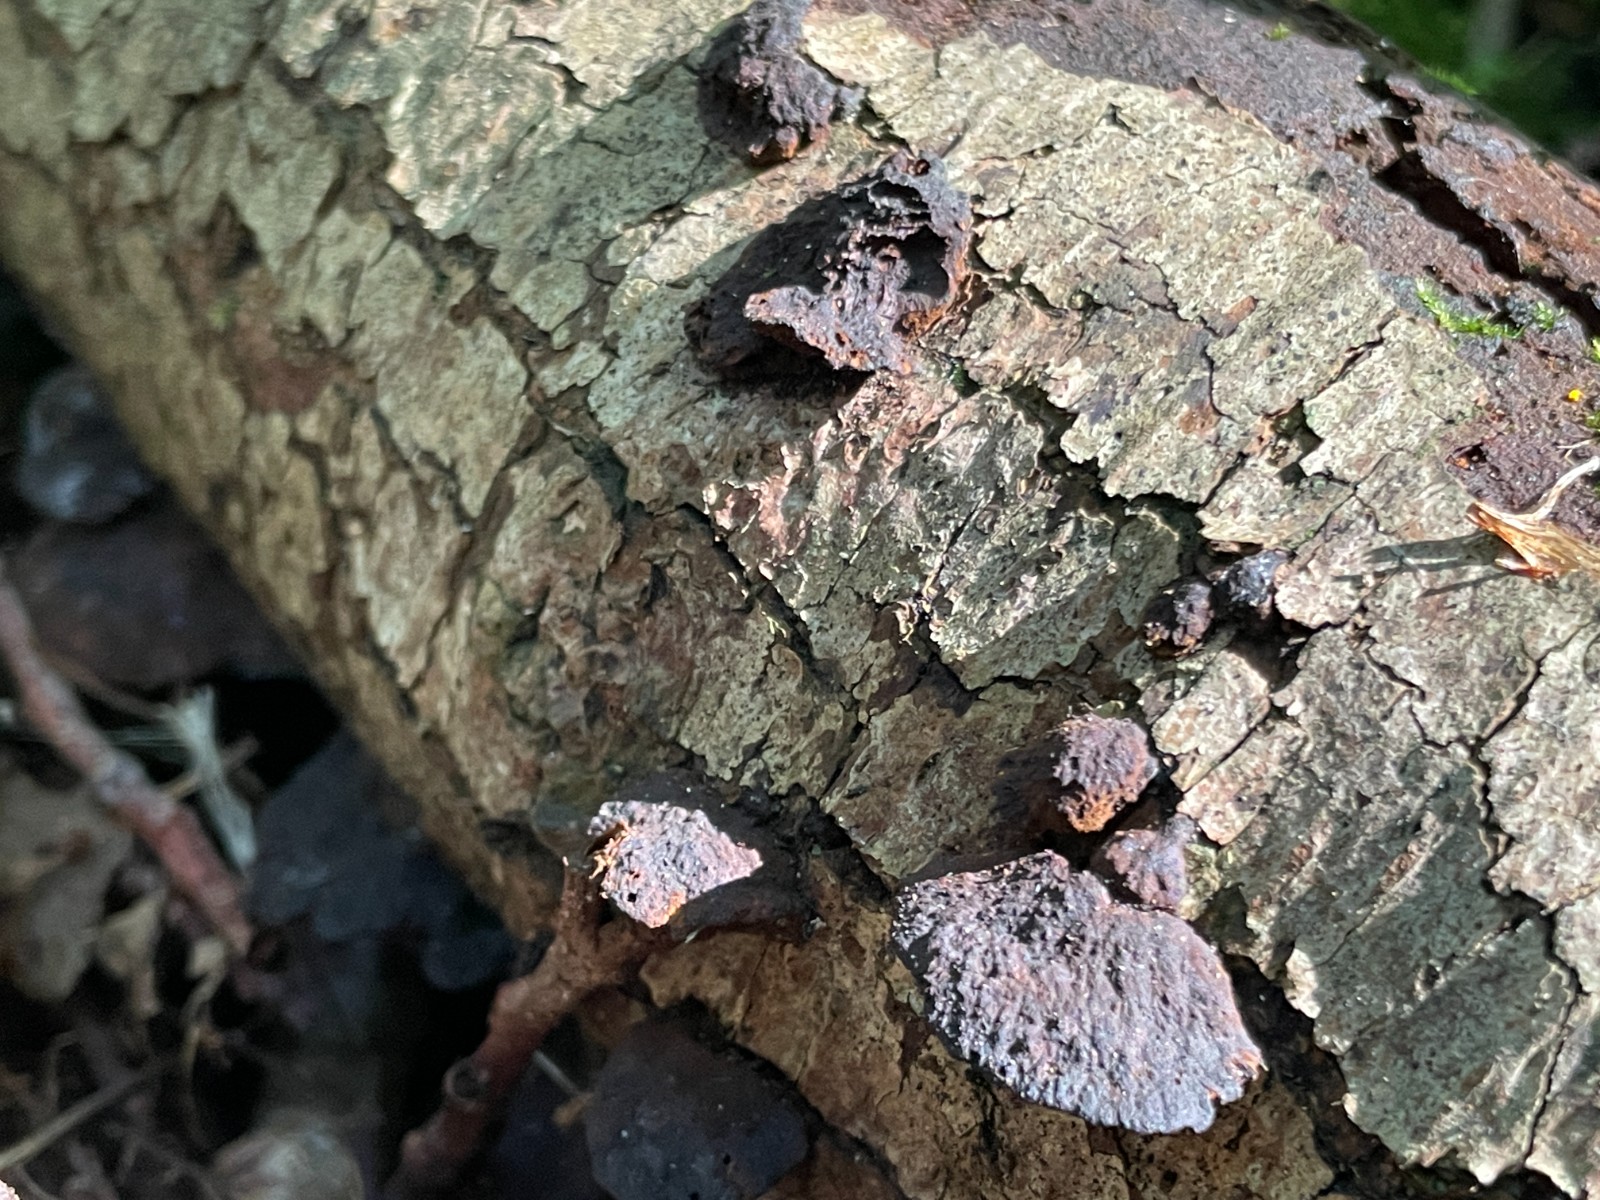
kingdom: Fungi
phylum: Basidiomycota
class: Agaricomycetes
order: Hymenochaetales
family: Hymenochaetaceae
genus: Xanthoporia
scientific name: Xanthoporia radiata
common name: elle-spejlporesvamp
